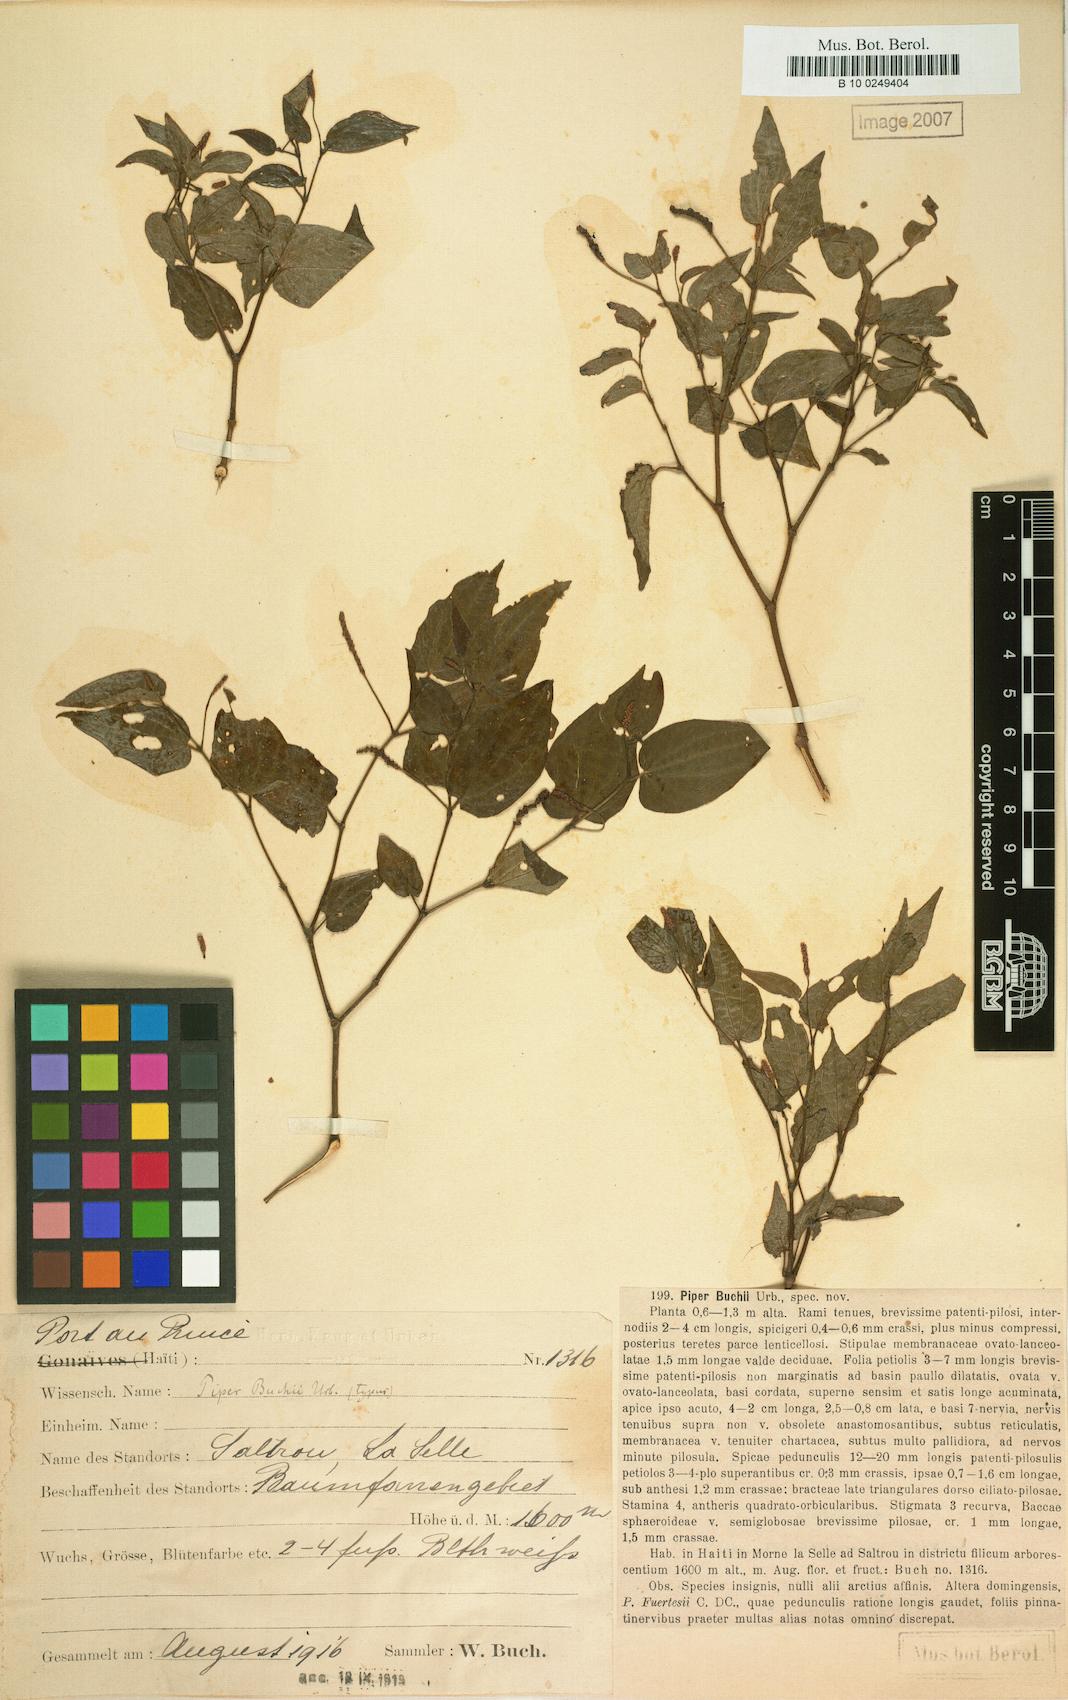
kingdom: Plantae
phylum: Tracheophyta
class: Magnoliopsida
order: Piperales
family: Piperaceae
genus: Piper
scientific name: Piper buchii
